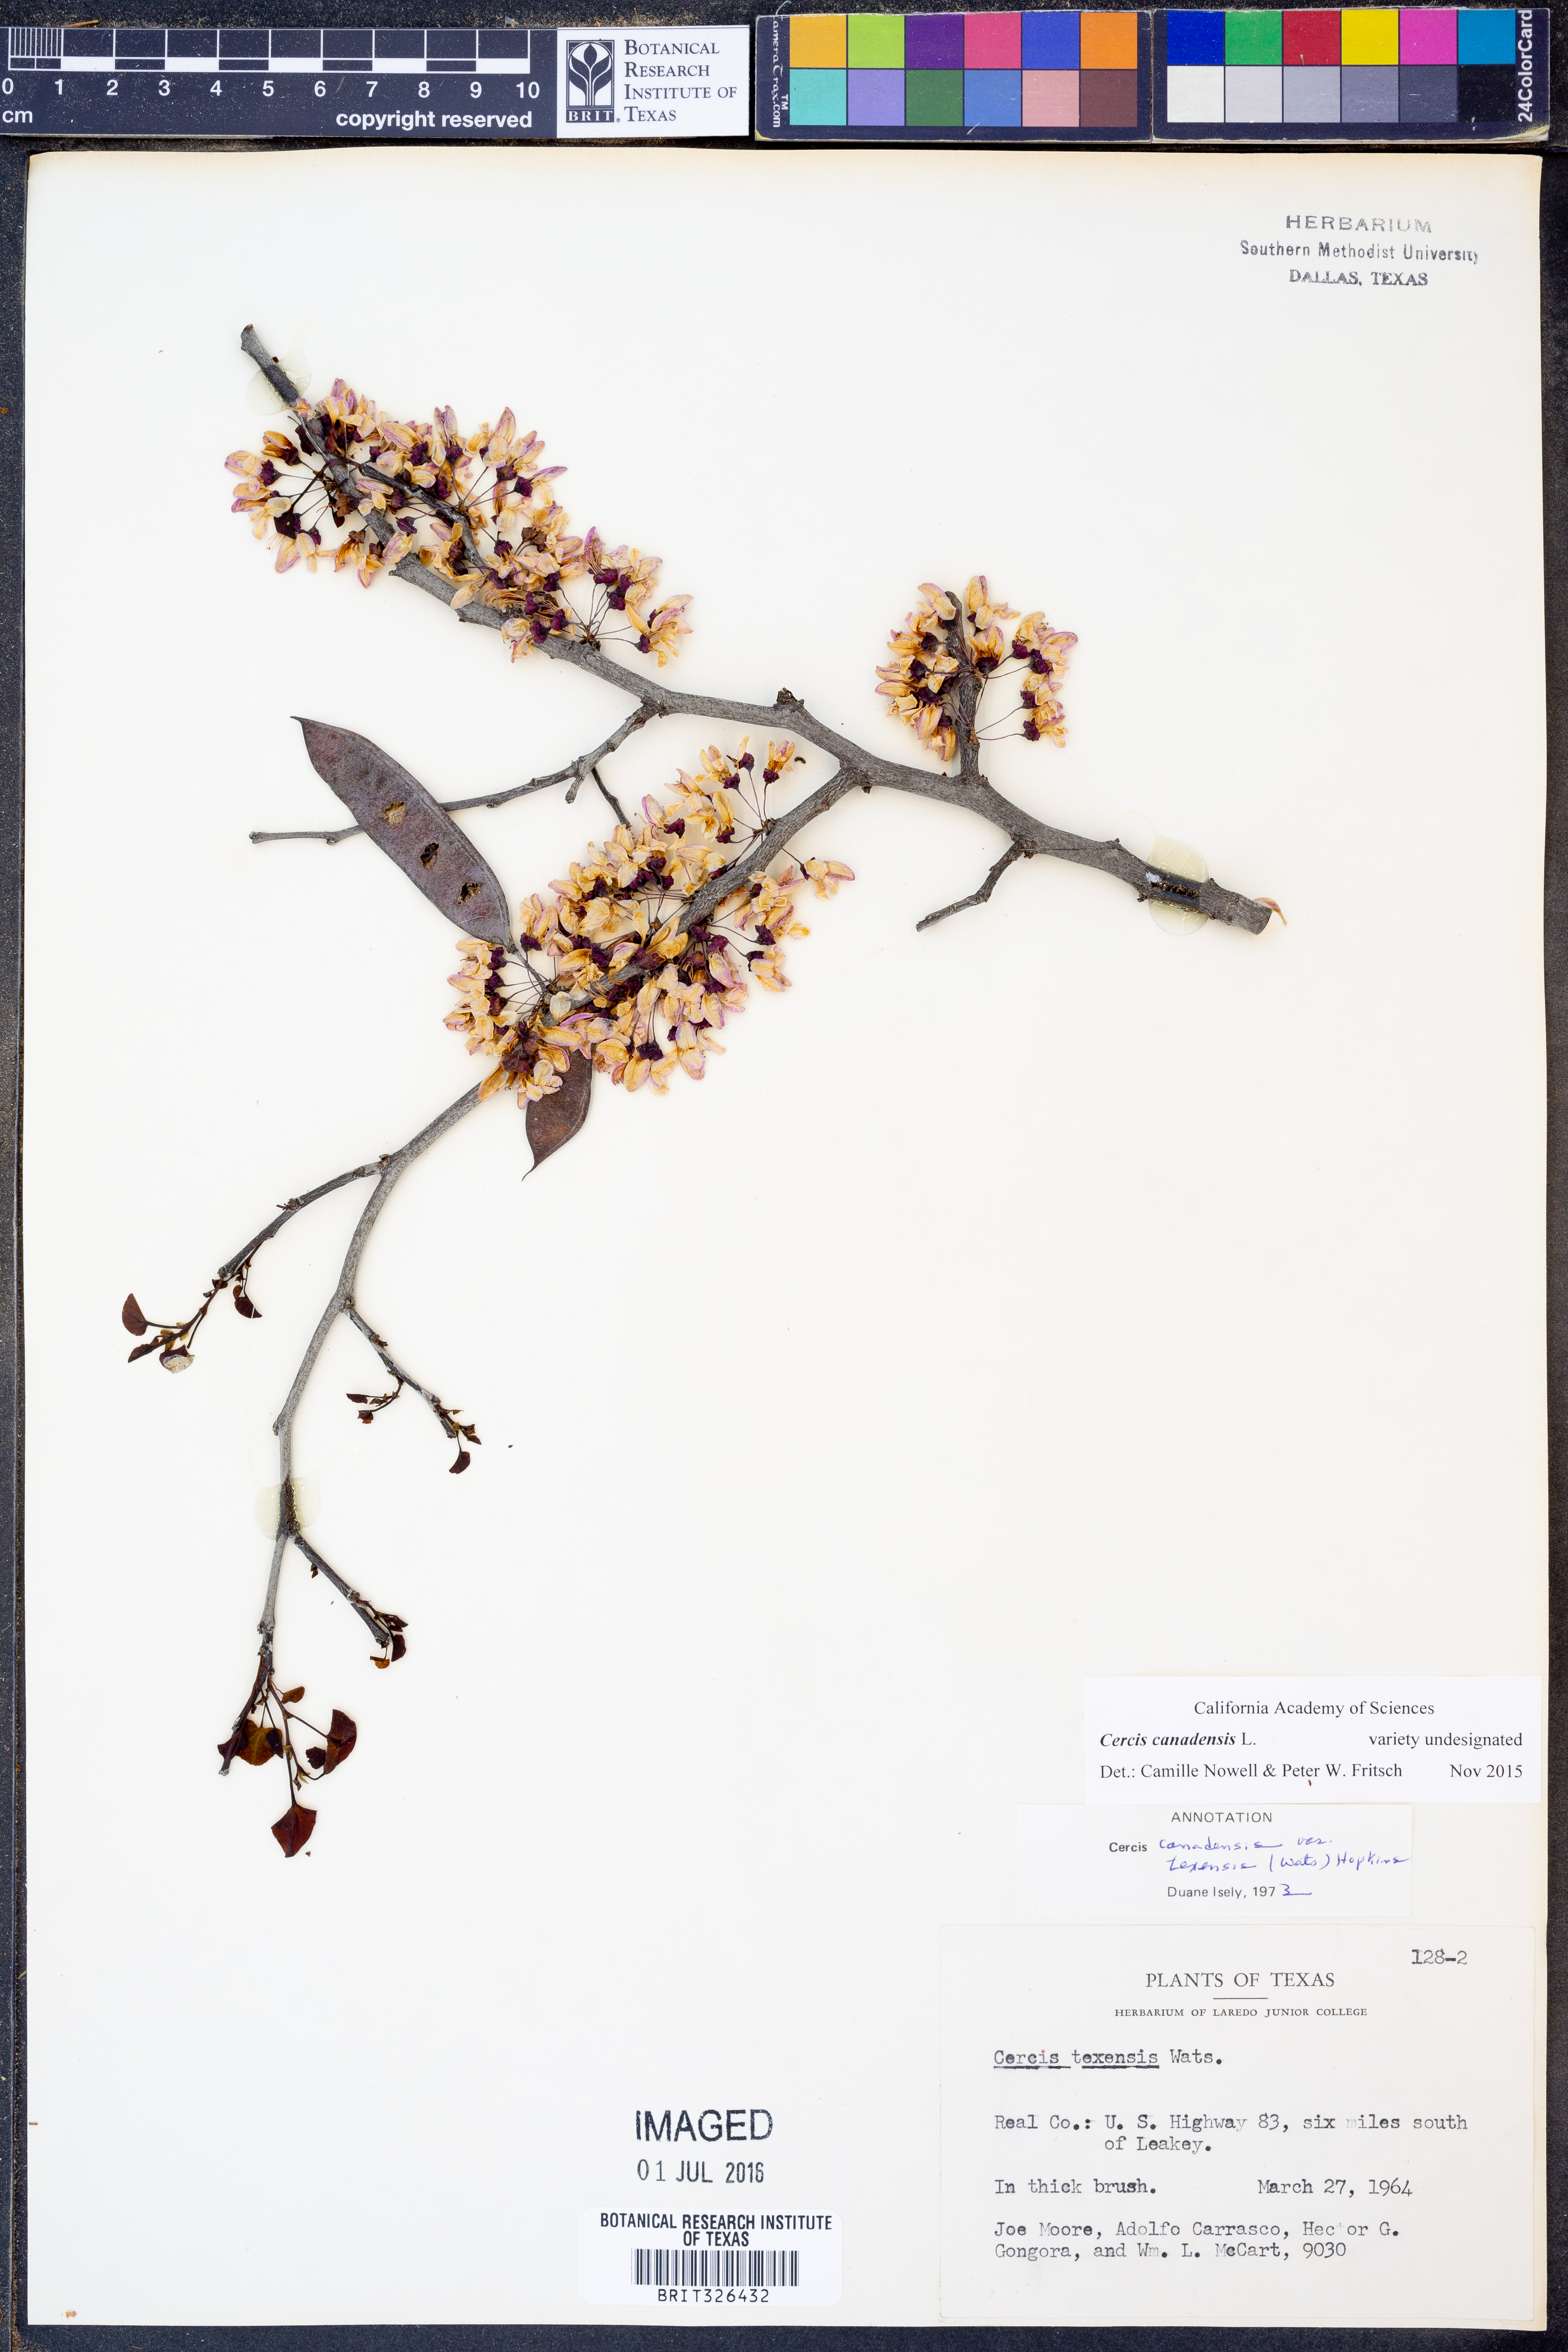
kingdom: Plantae
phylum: Tracheophyta
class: Magnoliopsida
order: Fabales
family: Fabaceae
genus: Cercis
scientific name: Cercis canadensis
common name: Eastern redbud
